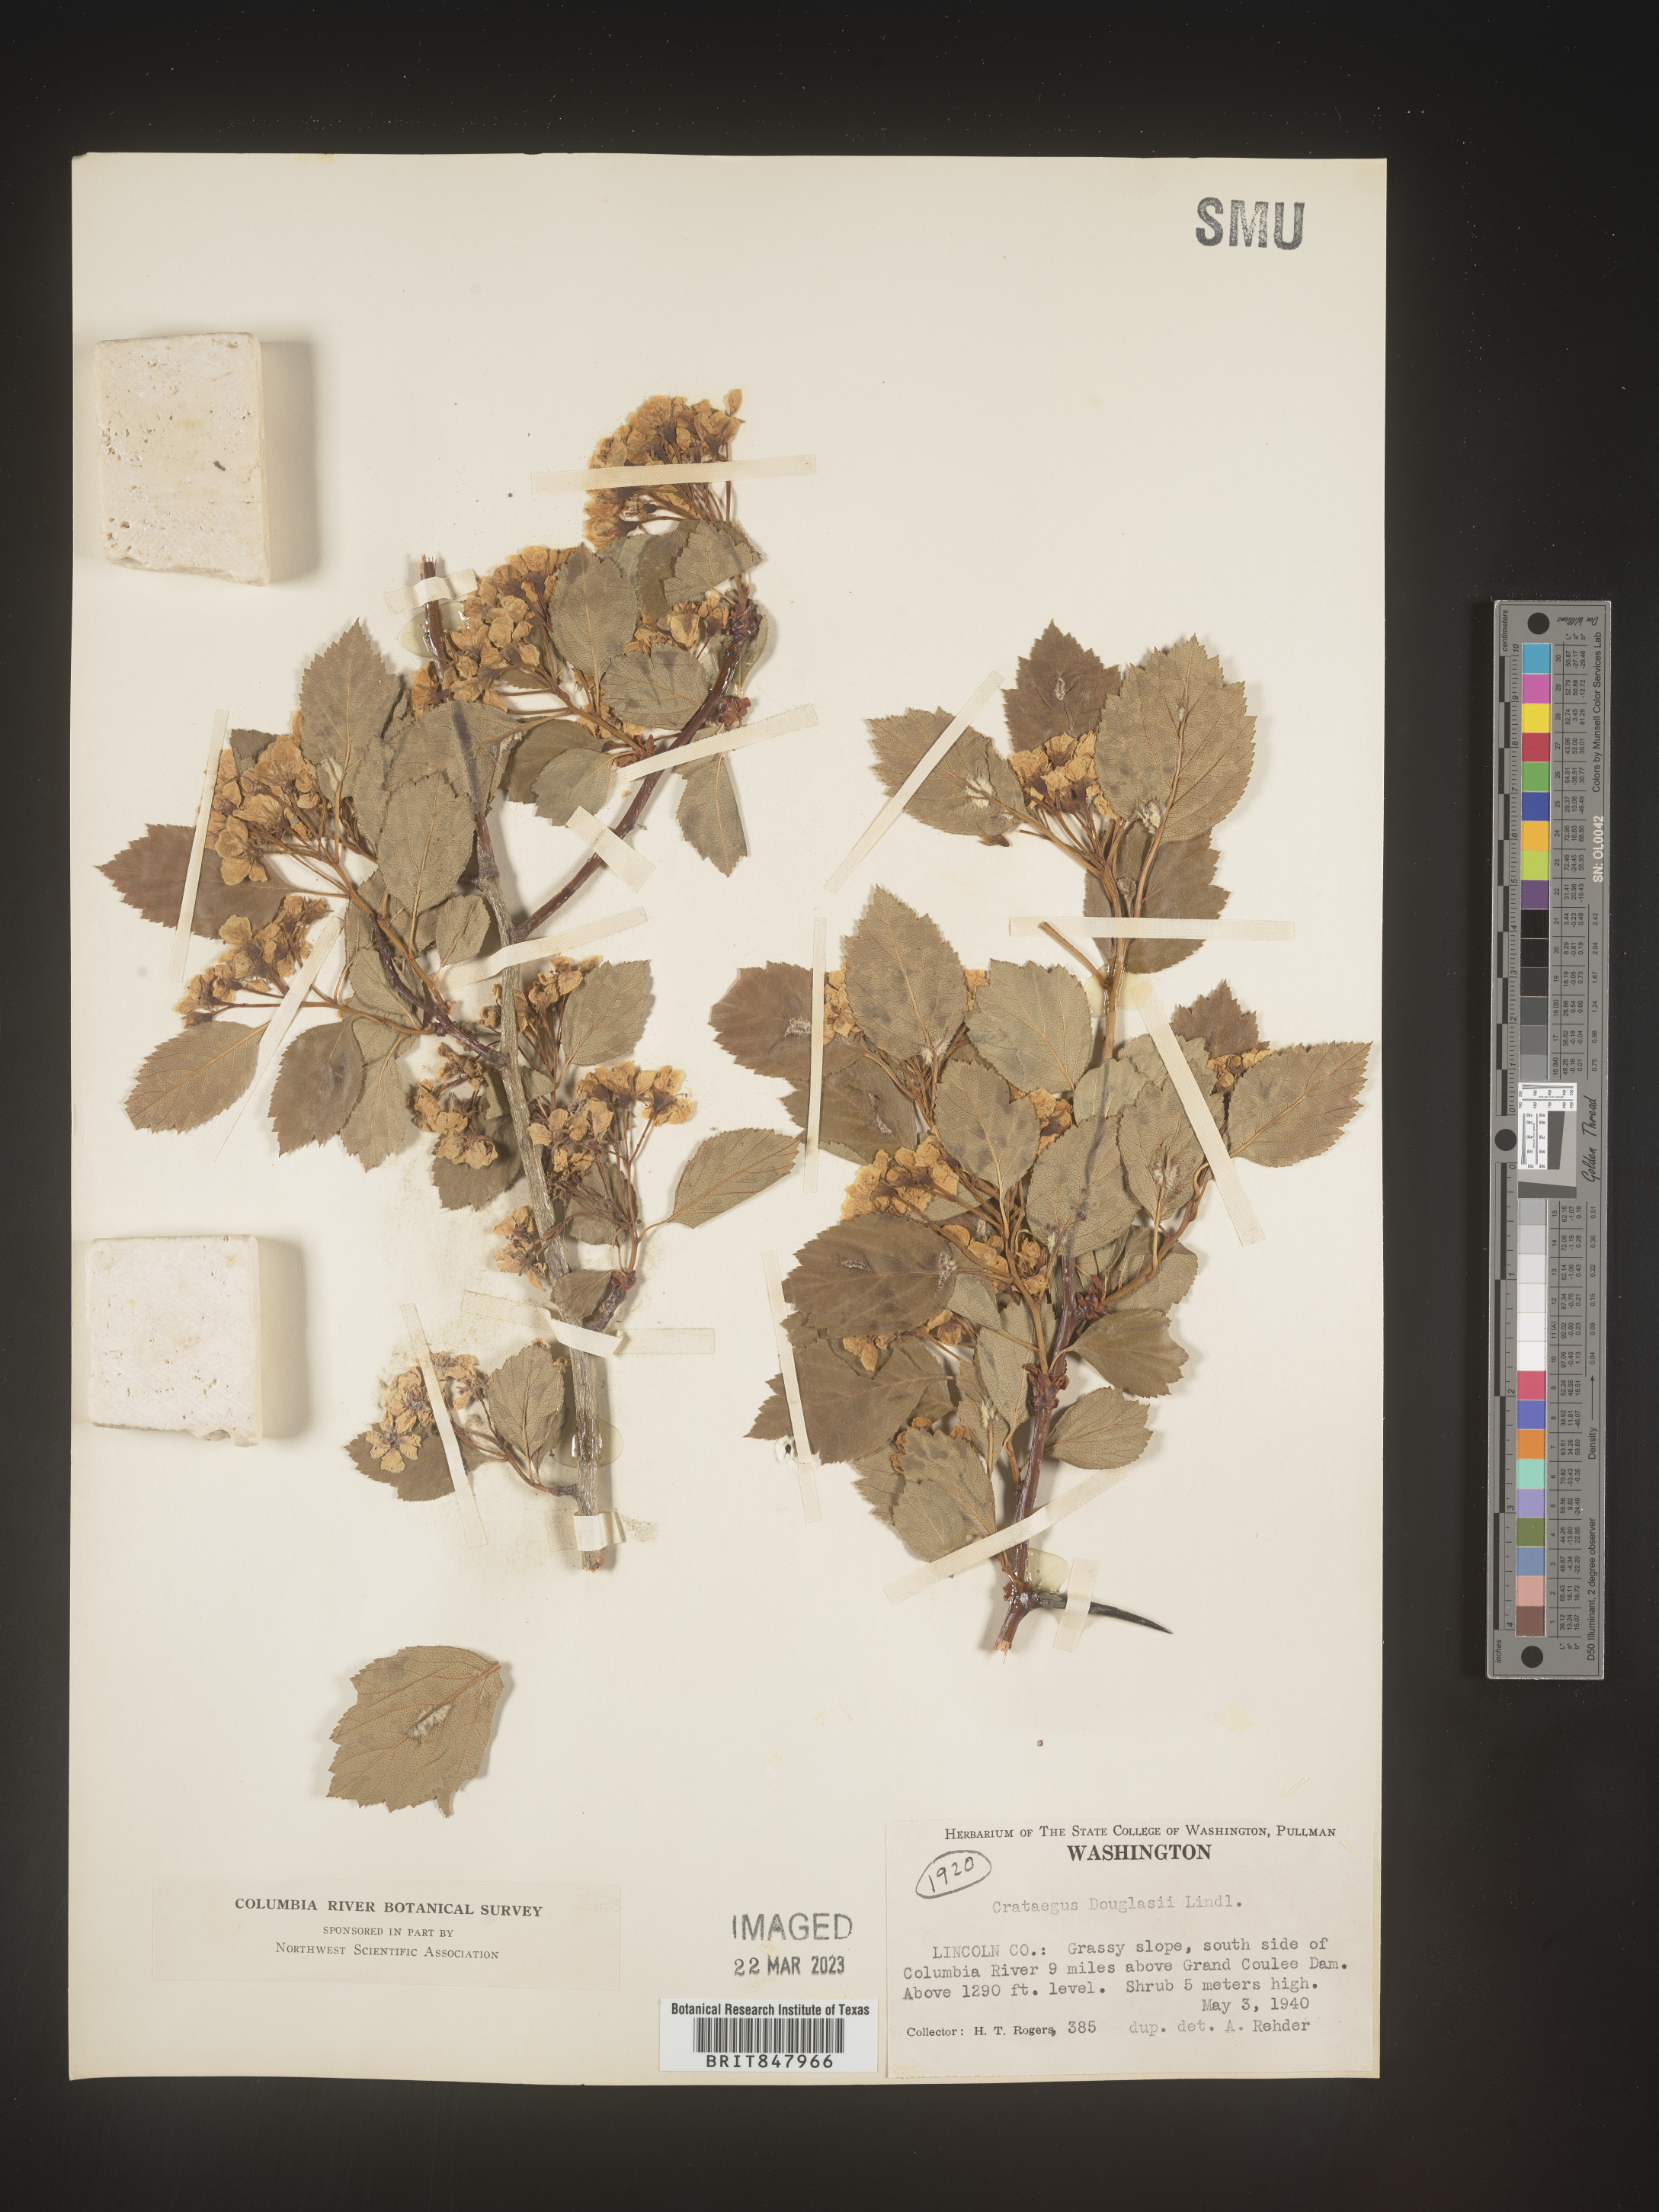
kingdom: Plantae
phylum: Tracheophyta
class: Magnoliopsida
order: Rosales
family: Rosaceae
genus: Crataegus
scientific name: Crataegus douglasii
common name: Black hawthorn
